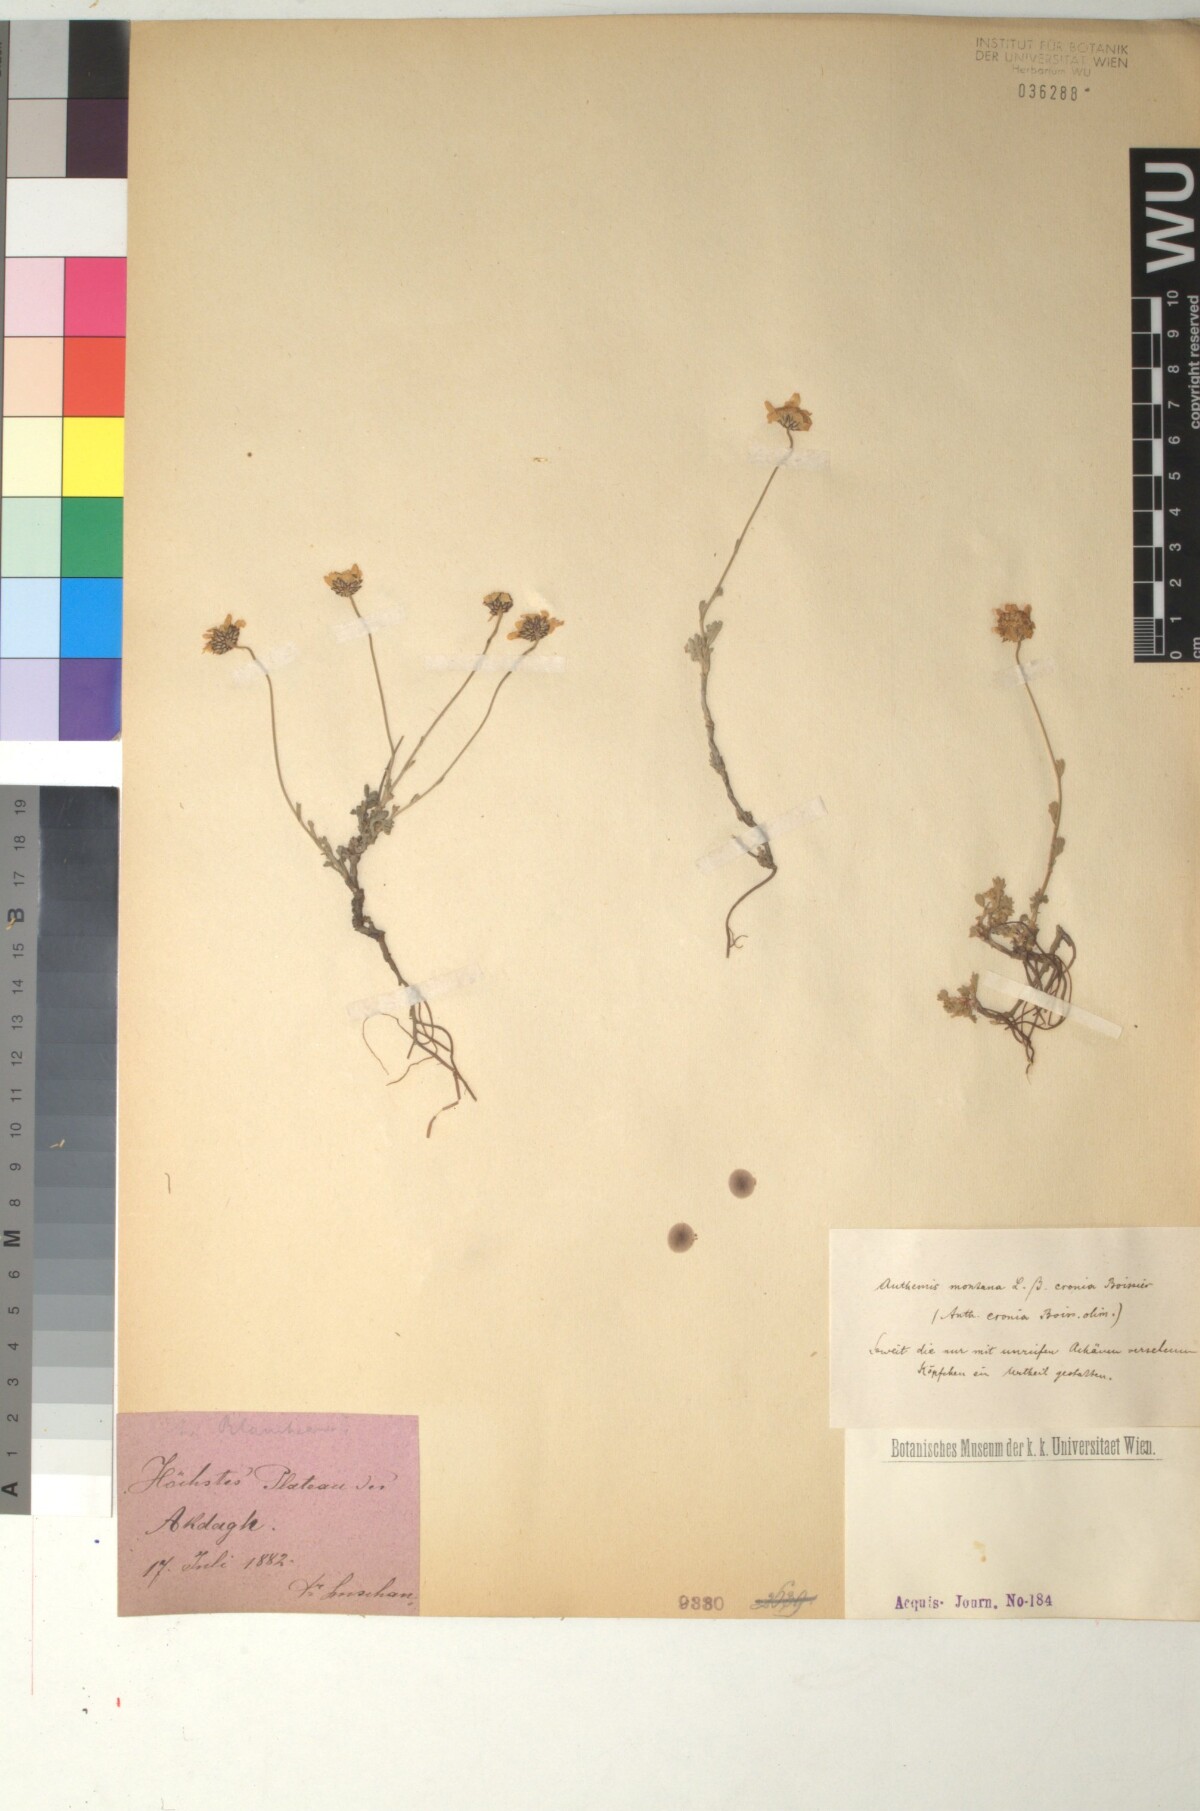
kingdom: Plantae
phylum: Tracheophyta
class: Magnoliopsida
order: Asterales
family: Asteraceae
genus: Anthemis
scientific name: Anthemis cretica
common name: Mountain dog-daisy
